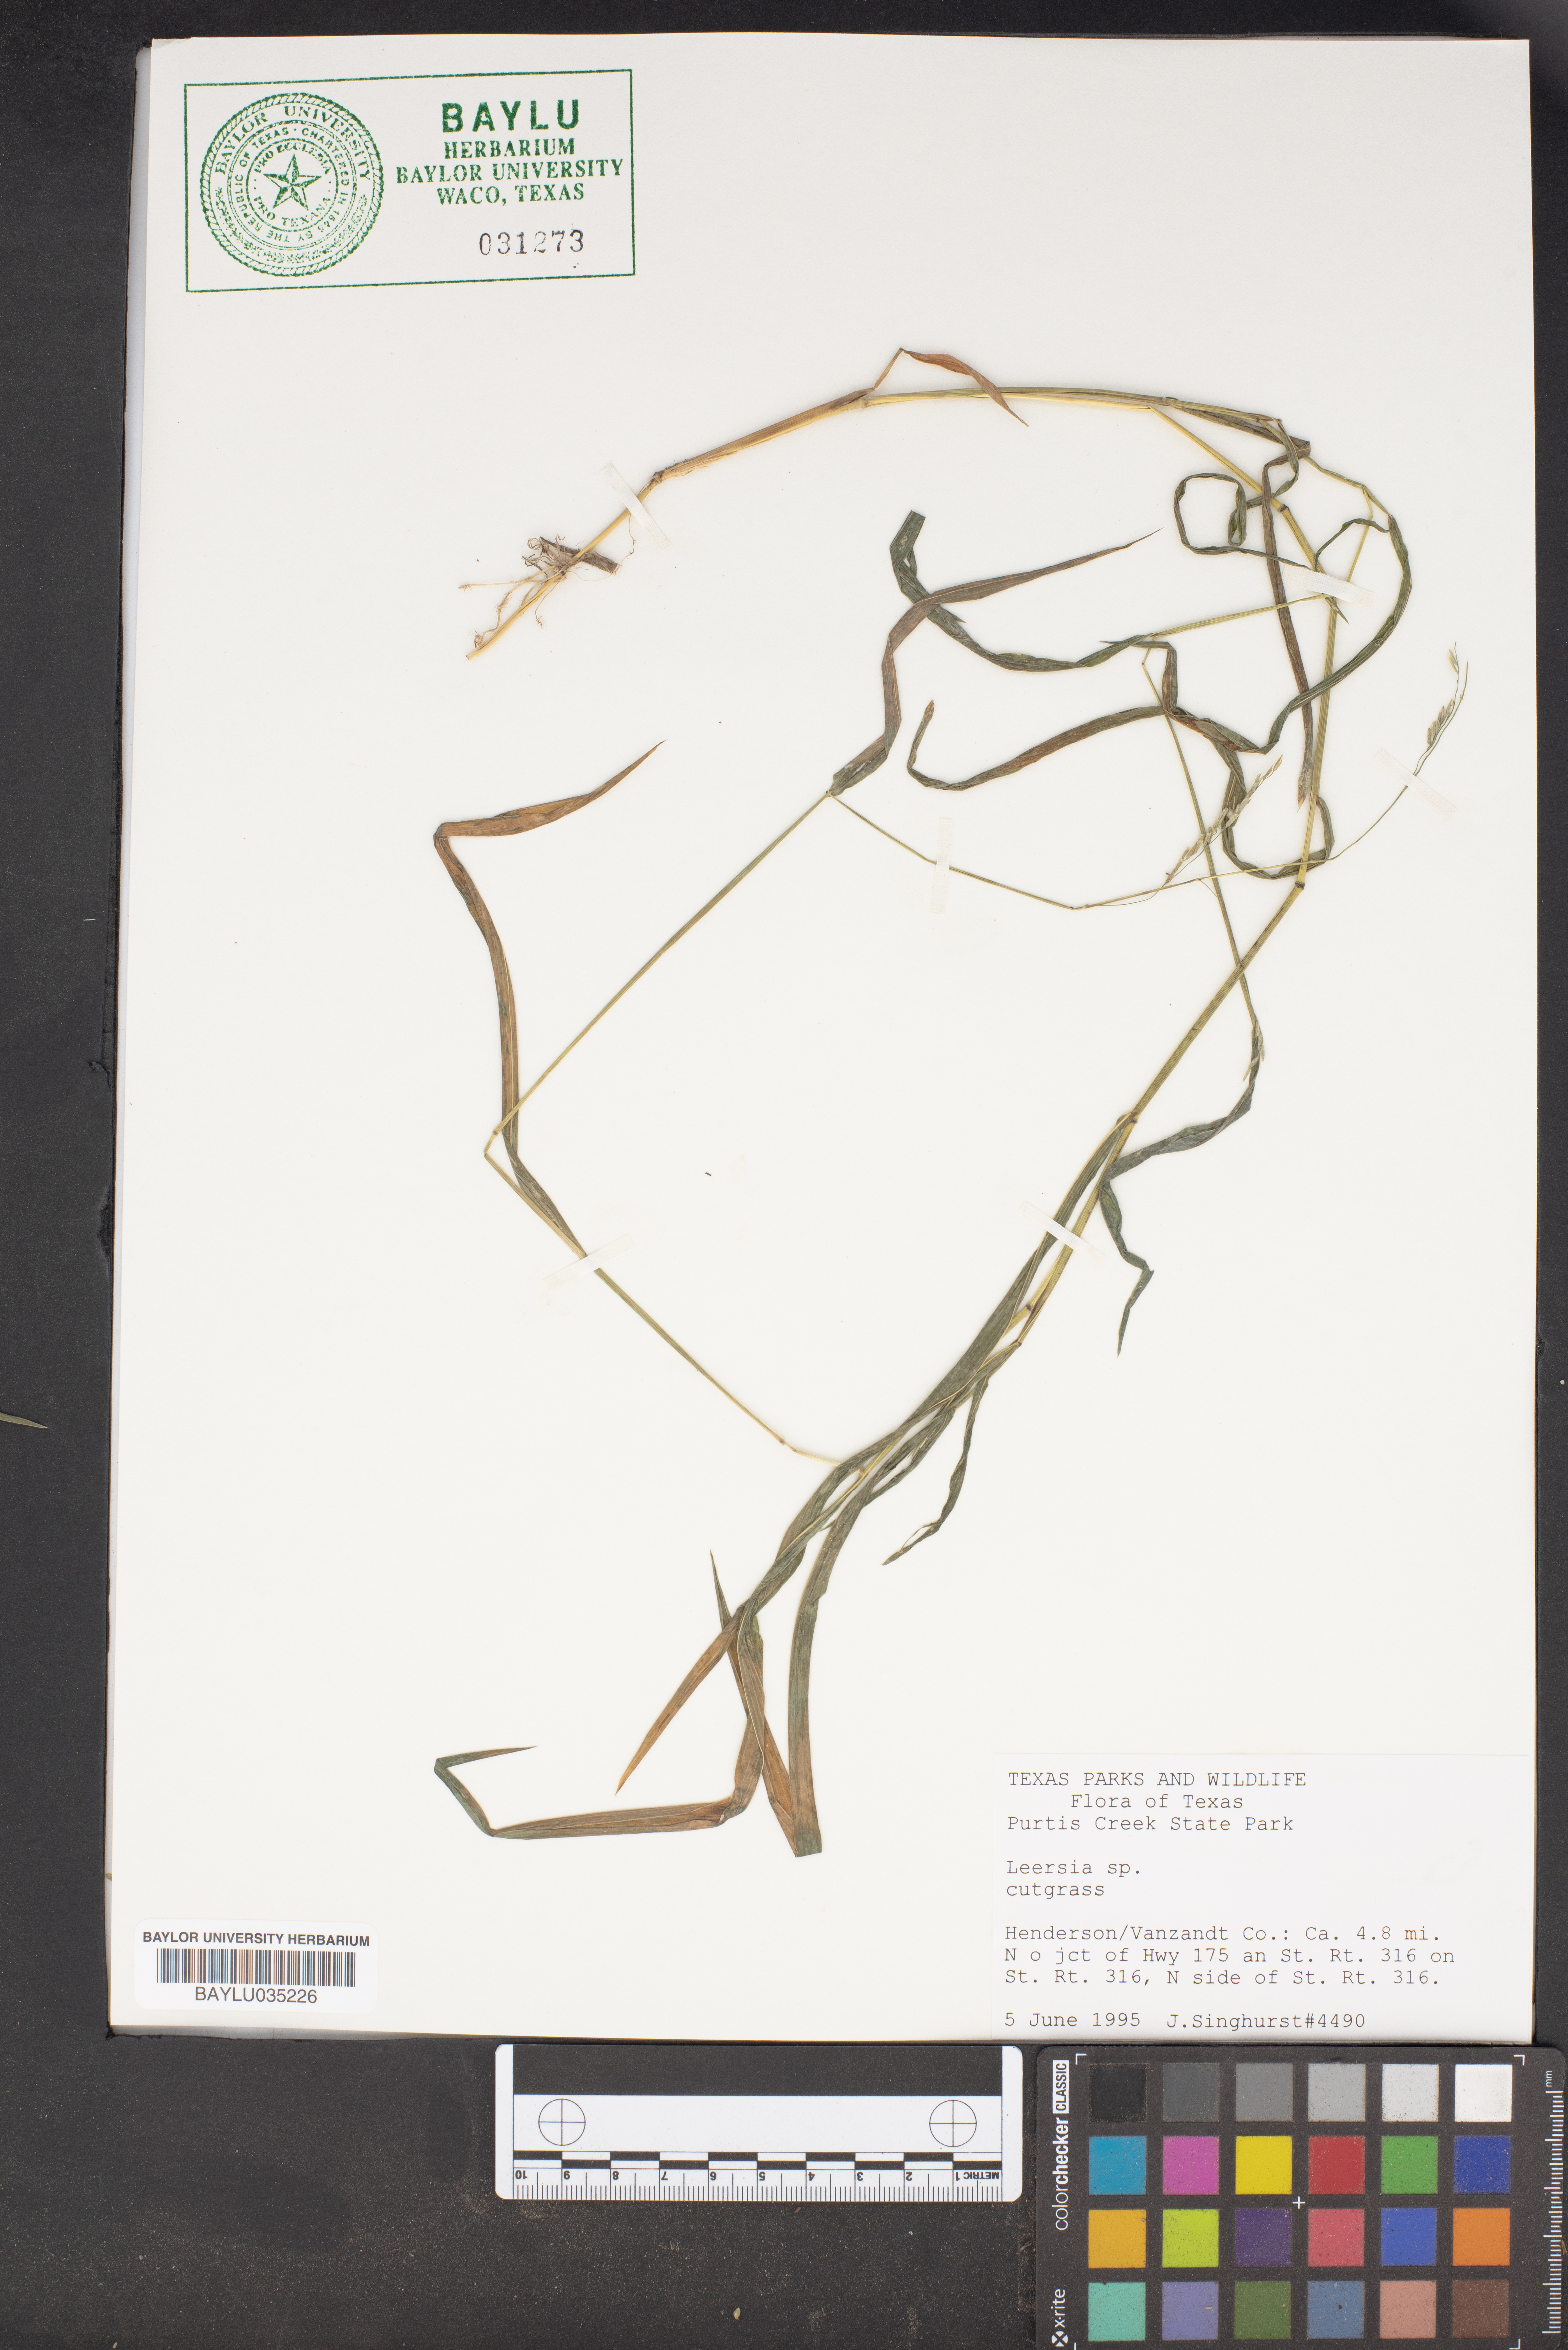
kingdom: Plantae
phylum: Tracheophyta
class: Liliopsida
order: Poales
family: Poaceae
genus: Leersia
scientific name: Leersia
